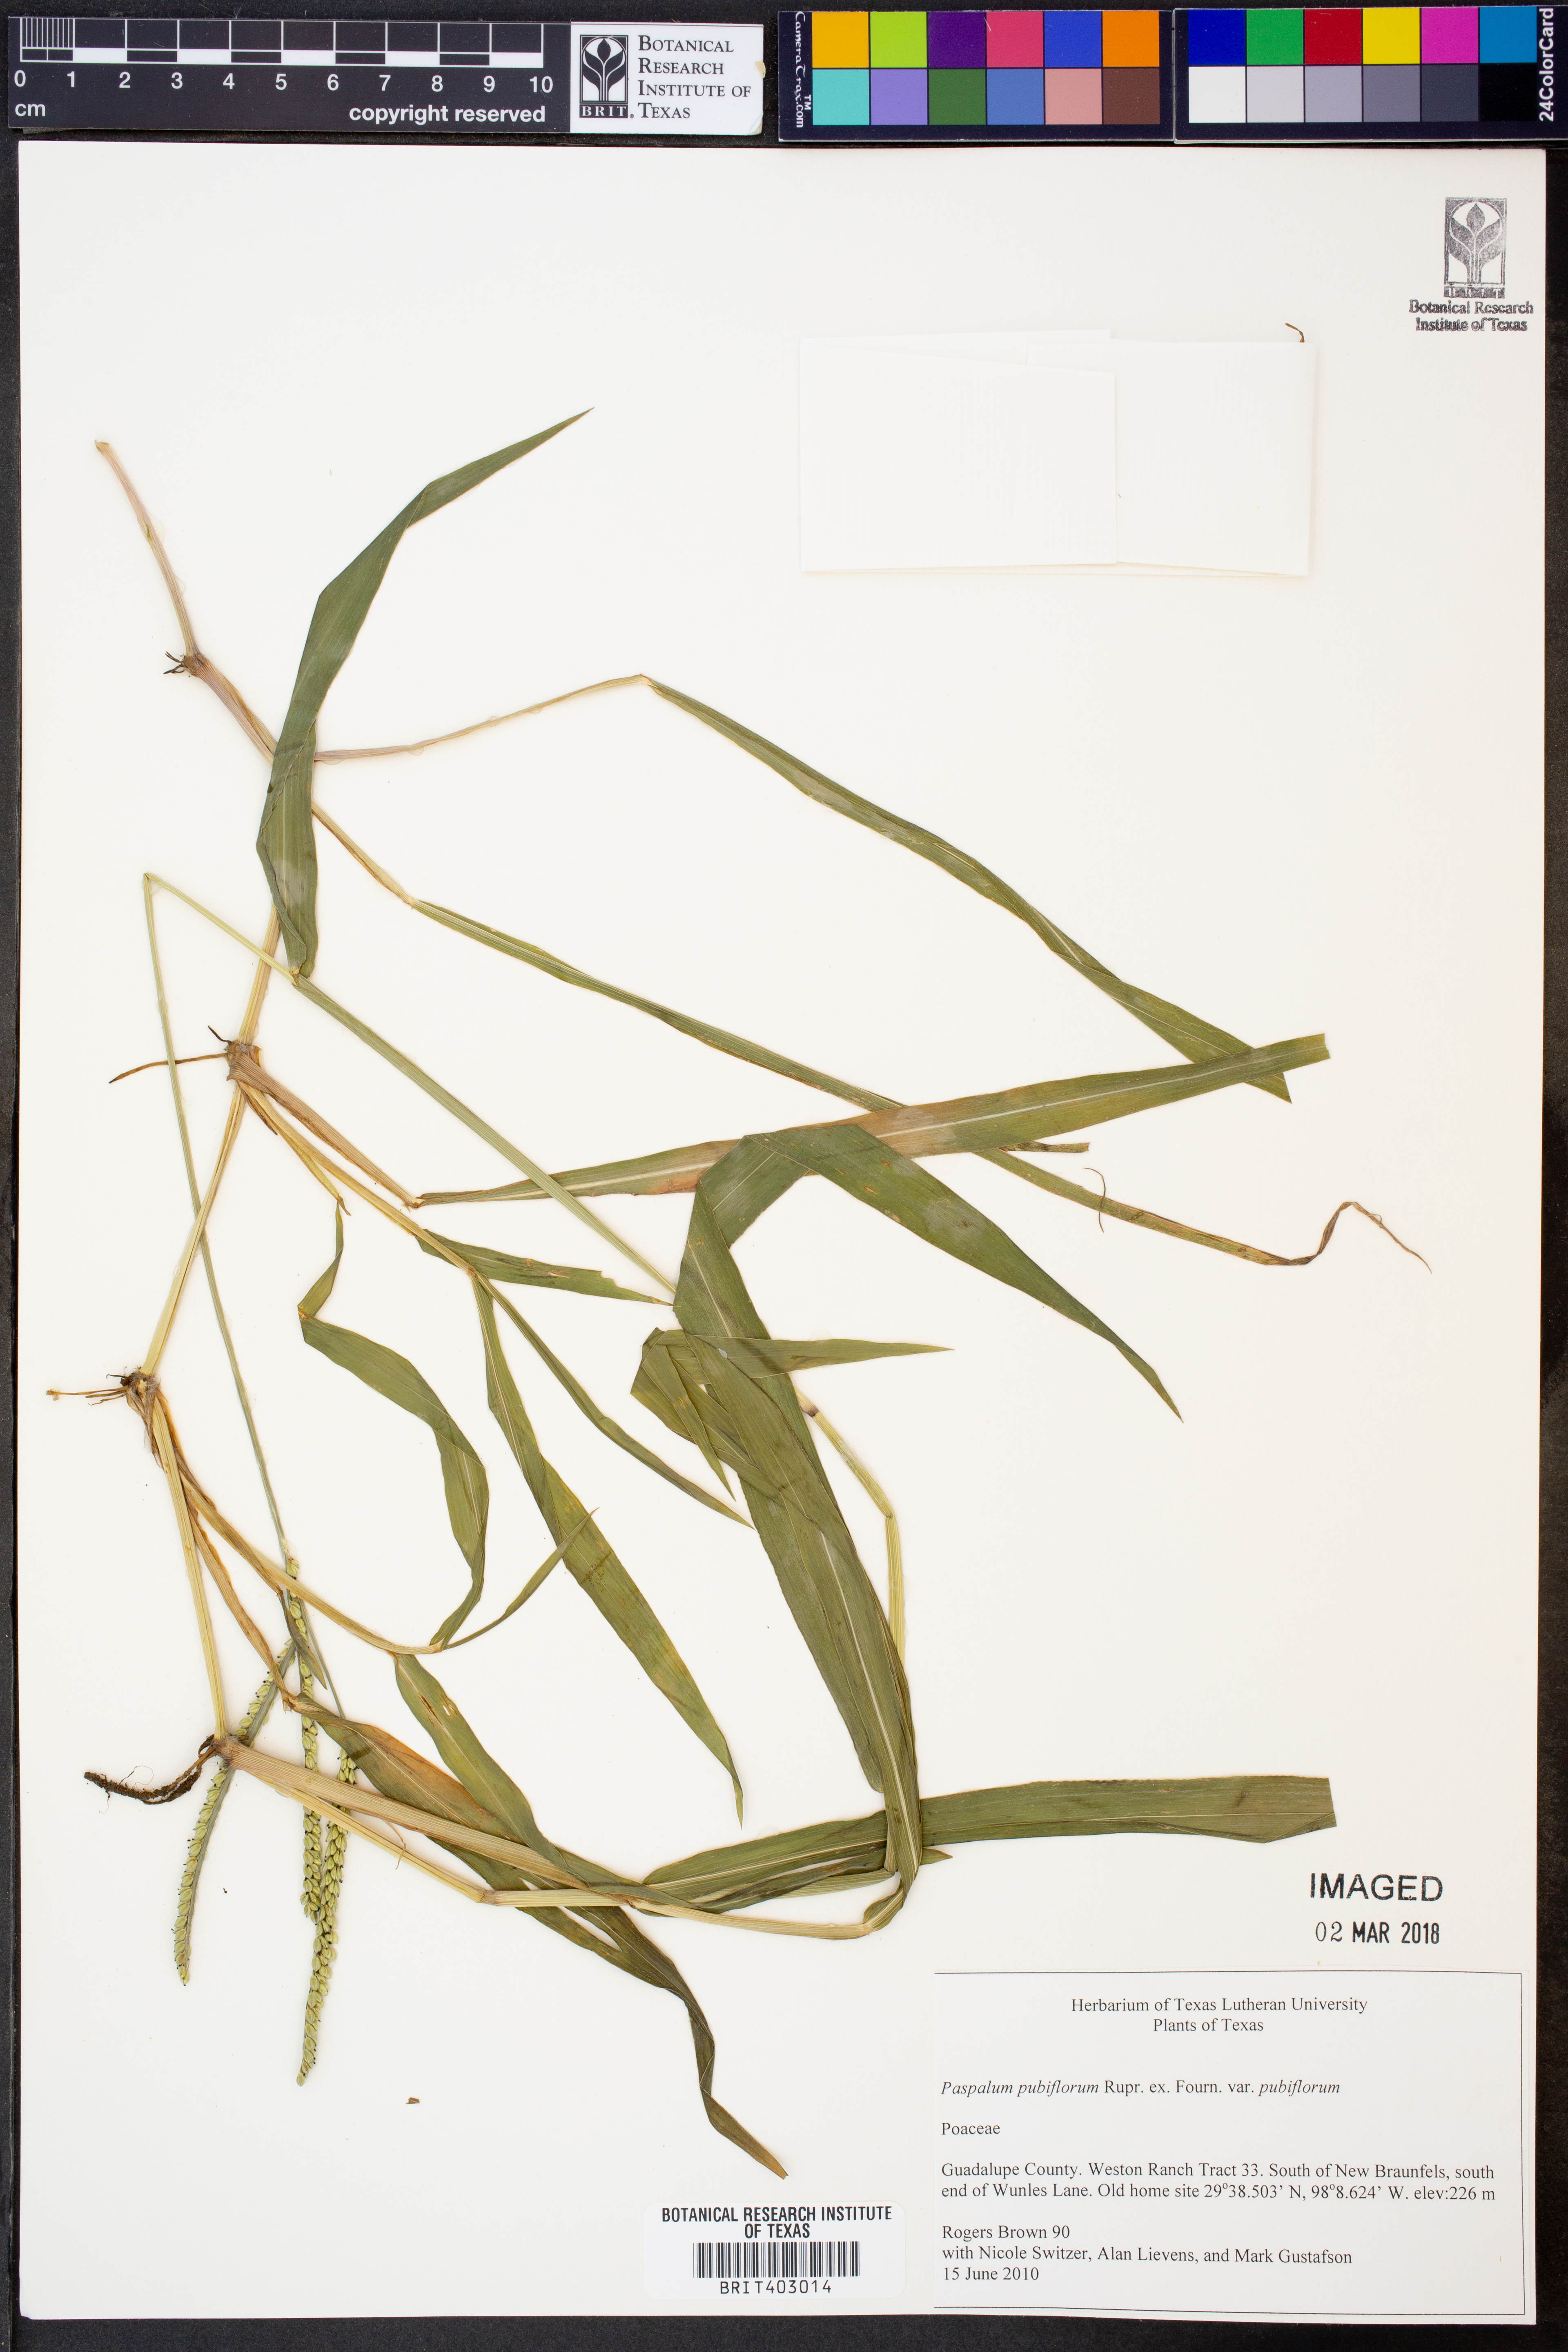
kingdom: Plantae
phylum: Tracheophyta
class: Liliopsida
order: Poales
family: Poaceae
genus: Paspalum
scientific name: Paspalum pubiflorum
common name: Hairy-seed paspalum
